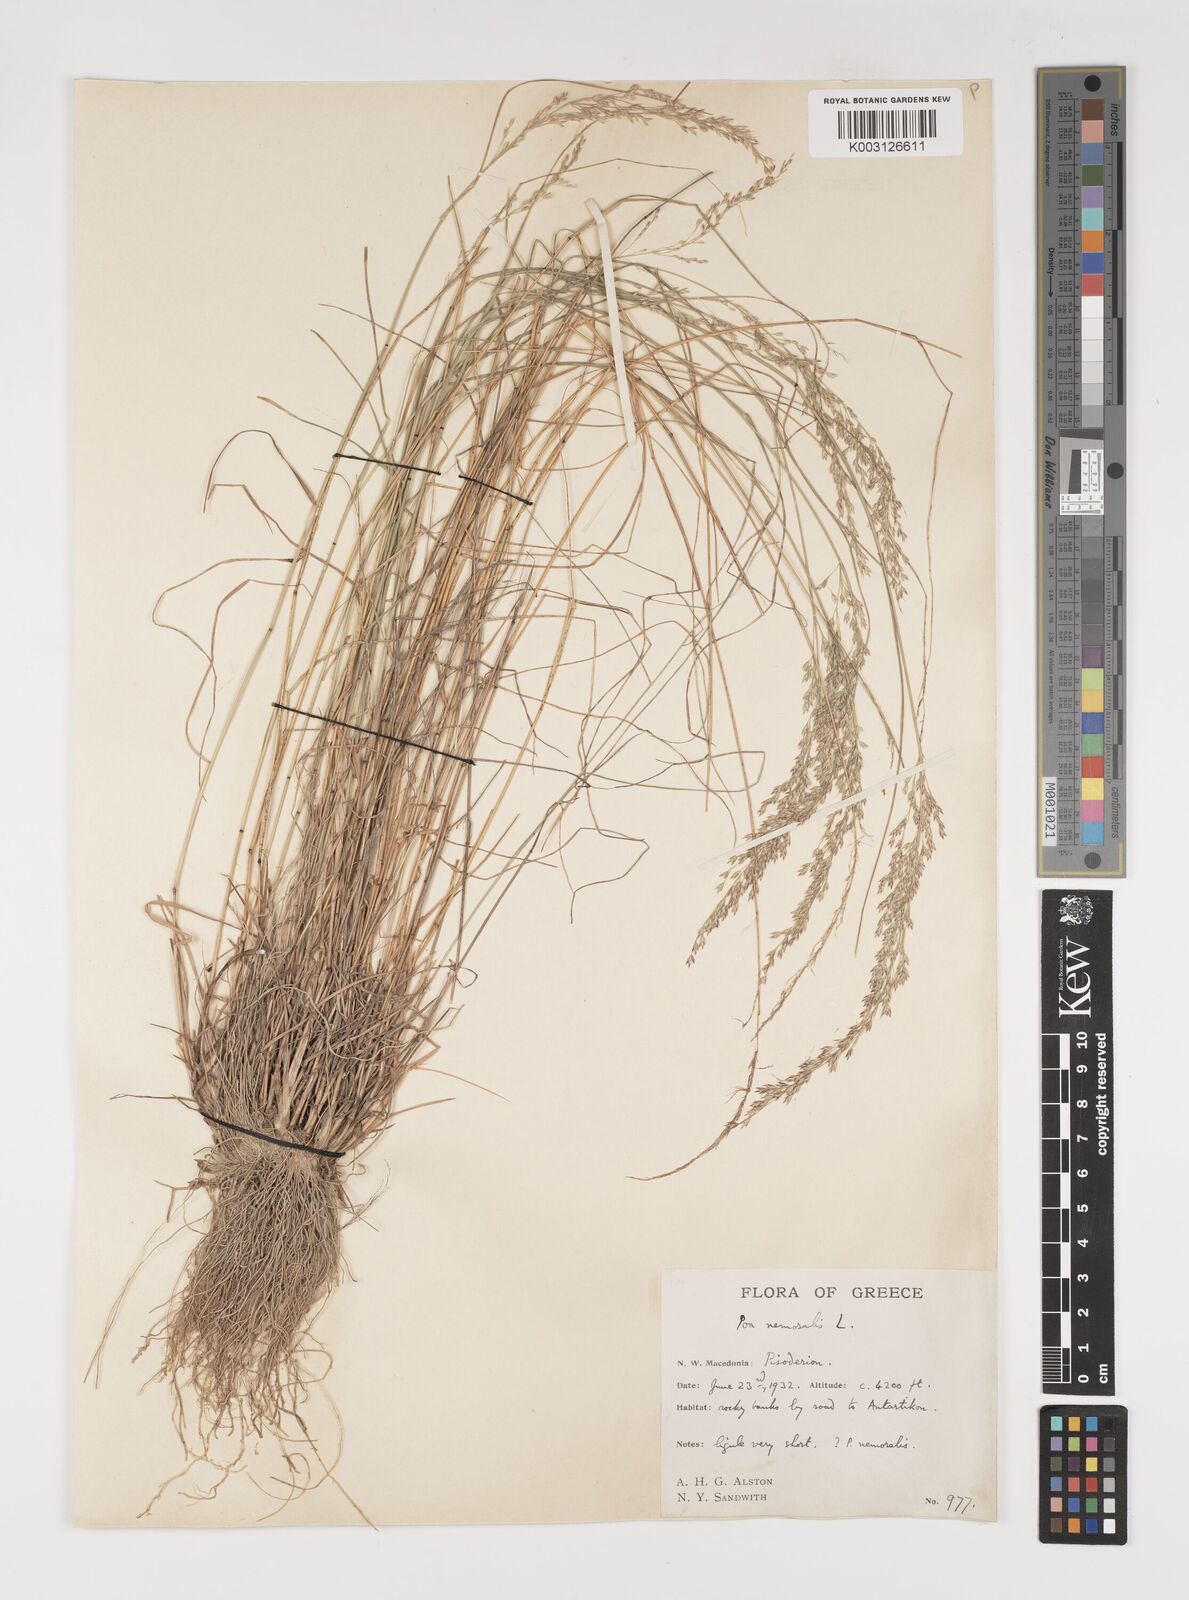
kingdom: Plantae
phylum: Tracheophyta
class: Liliopsida
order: Poales
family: Poaceae
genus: Poa
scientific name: Poa nemoralis
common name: Wood bluegrass
